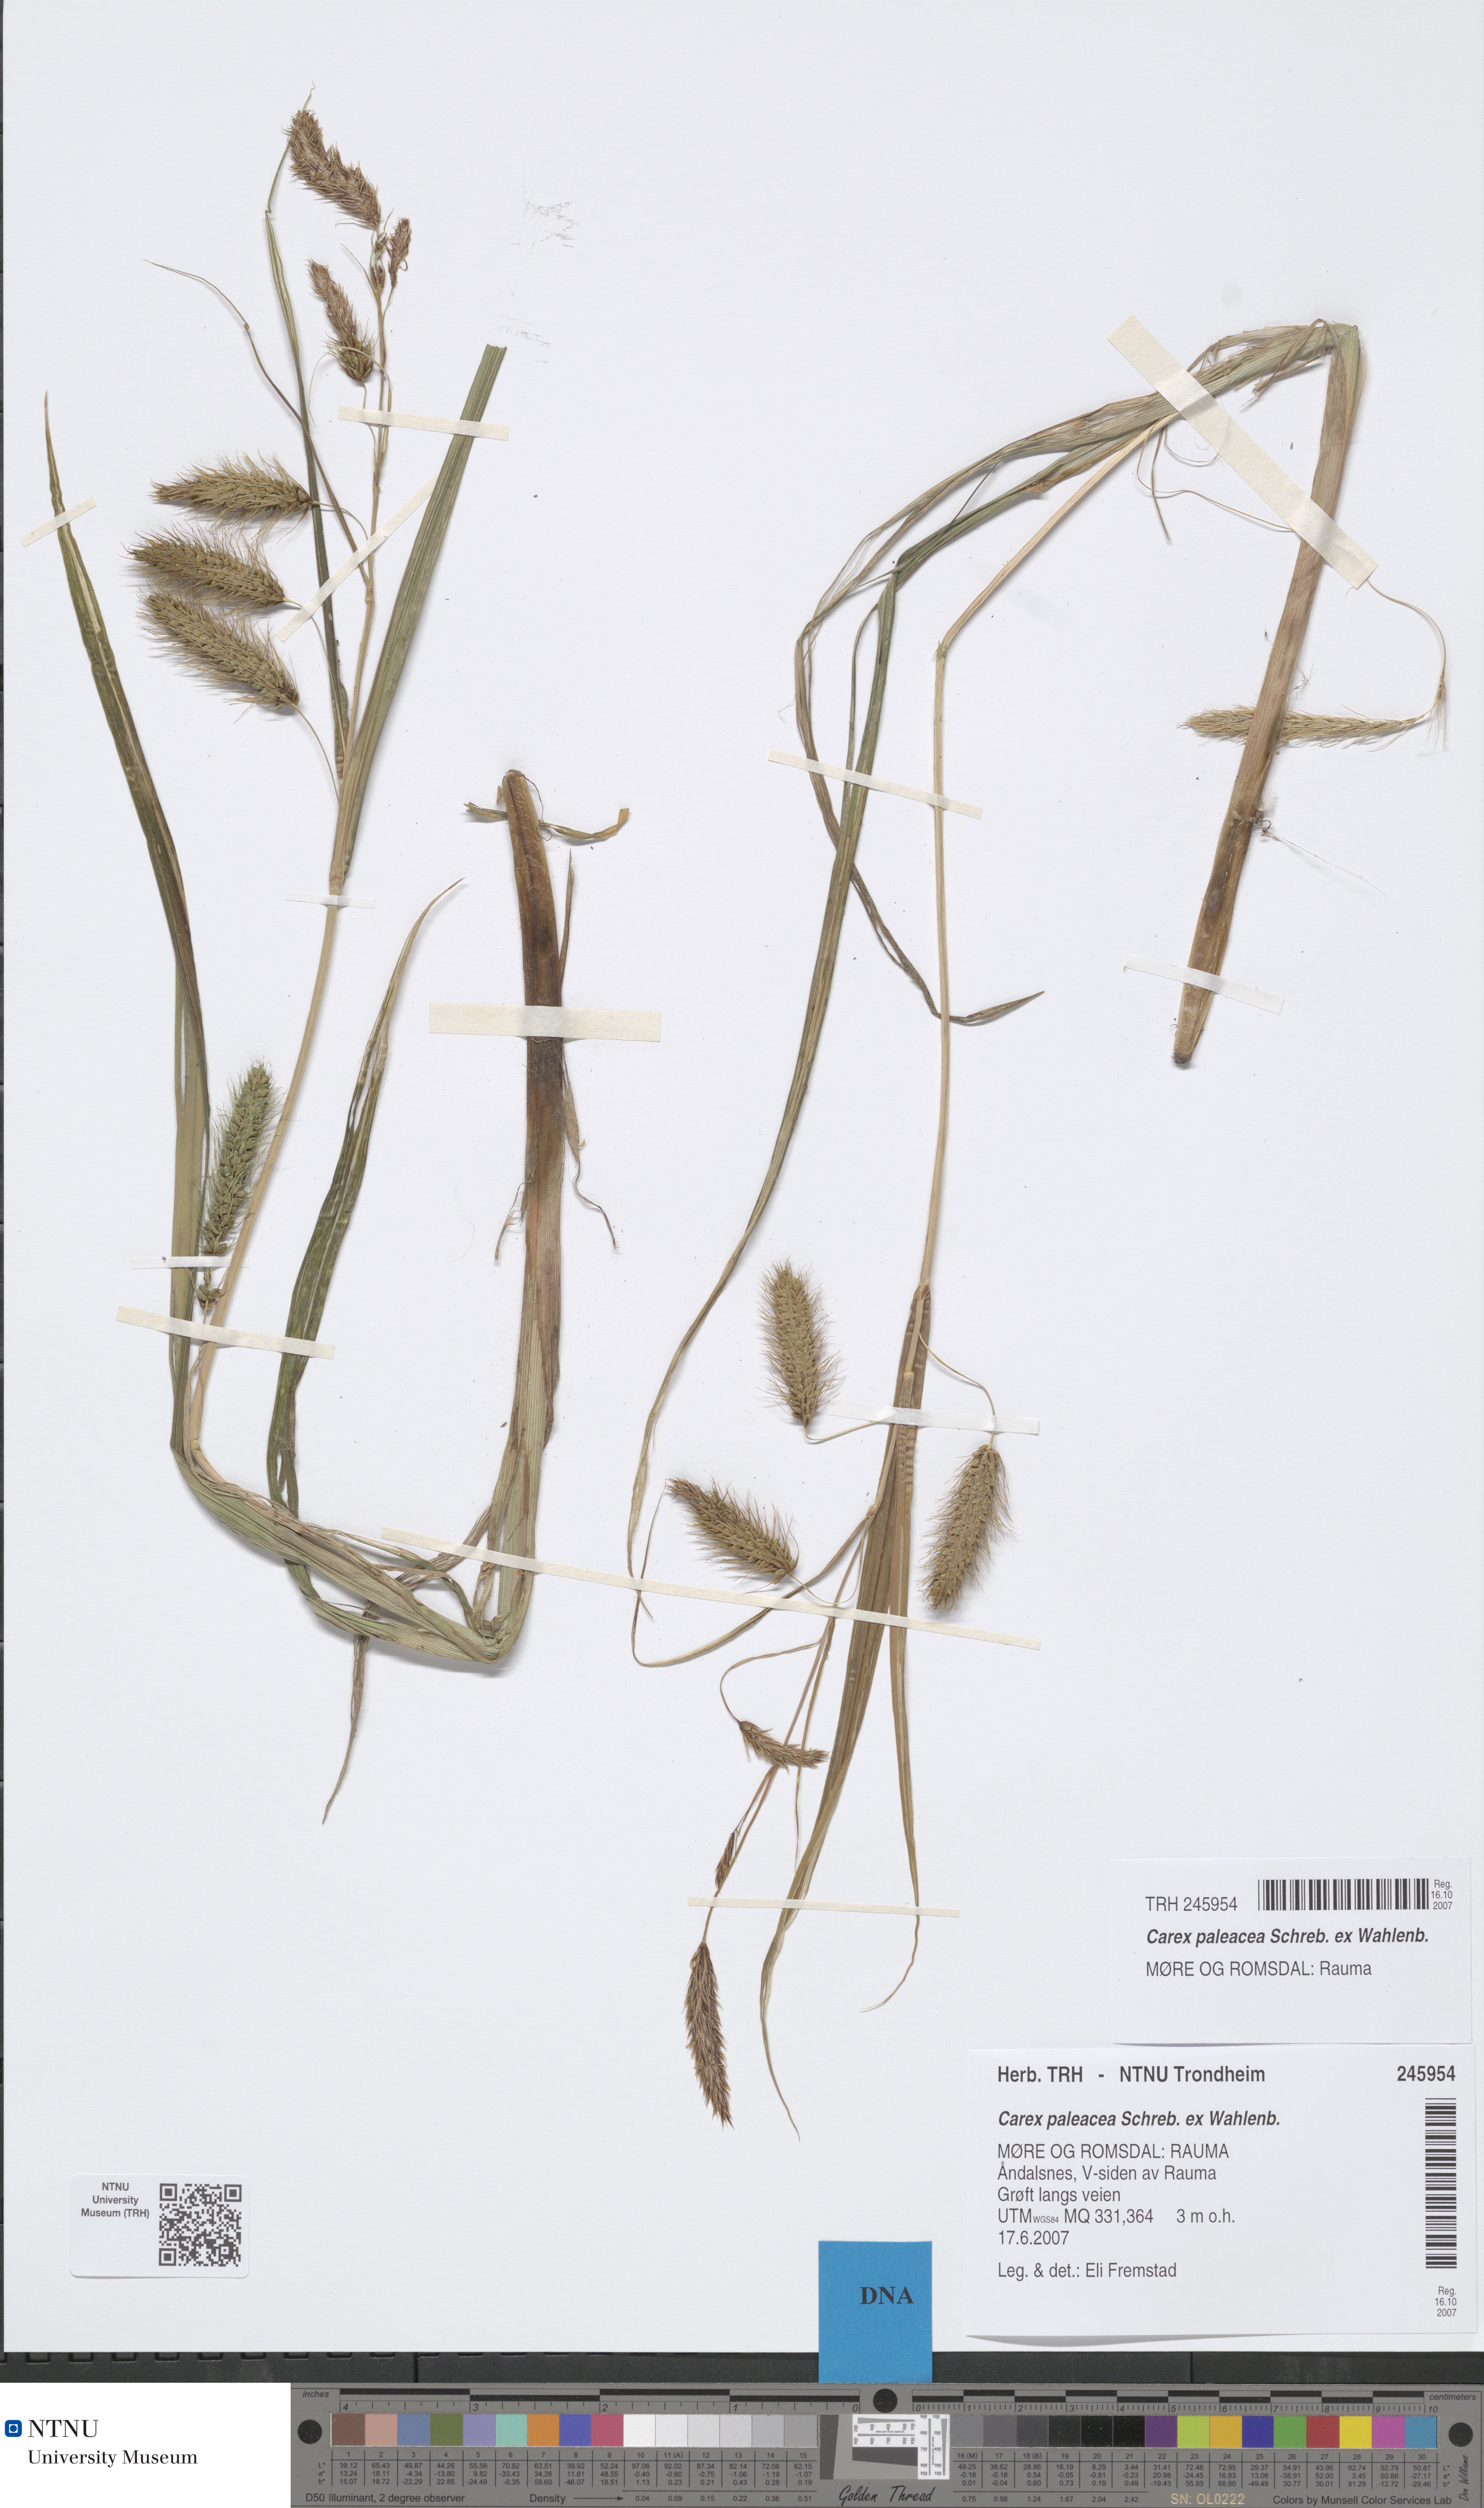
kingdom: Plantae
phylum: Tracheophyta
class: Liliopsida
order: Poales
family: Cyperaceae
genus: Carex
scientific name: Carex paleacea
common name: Chaffy sedge
